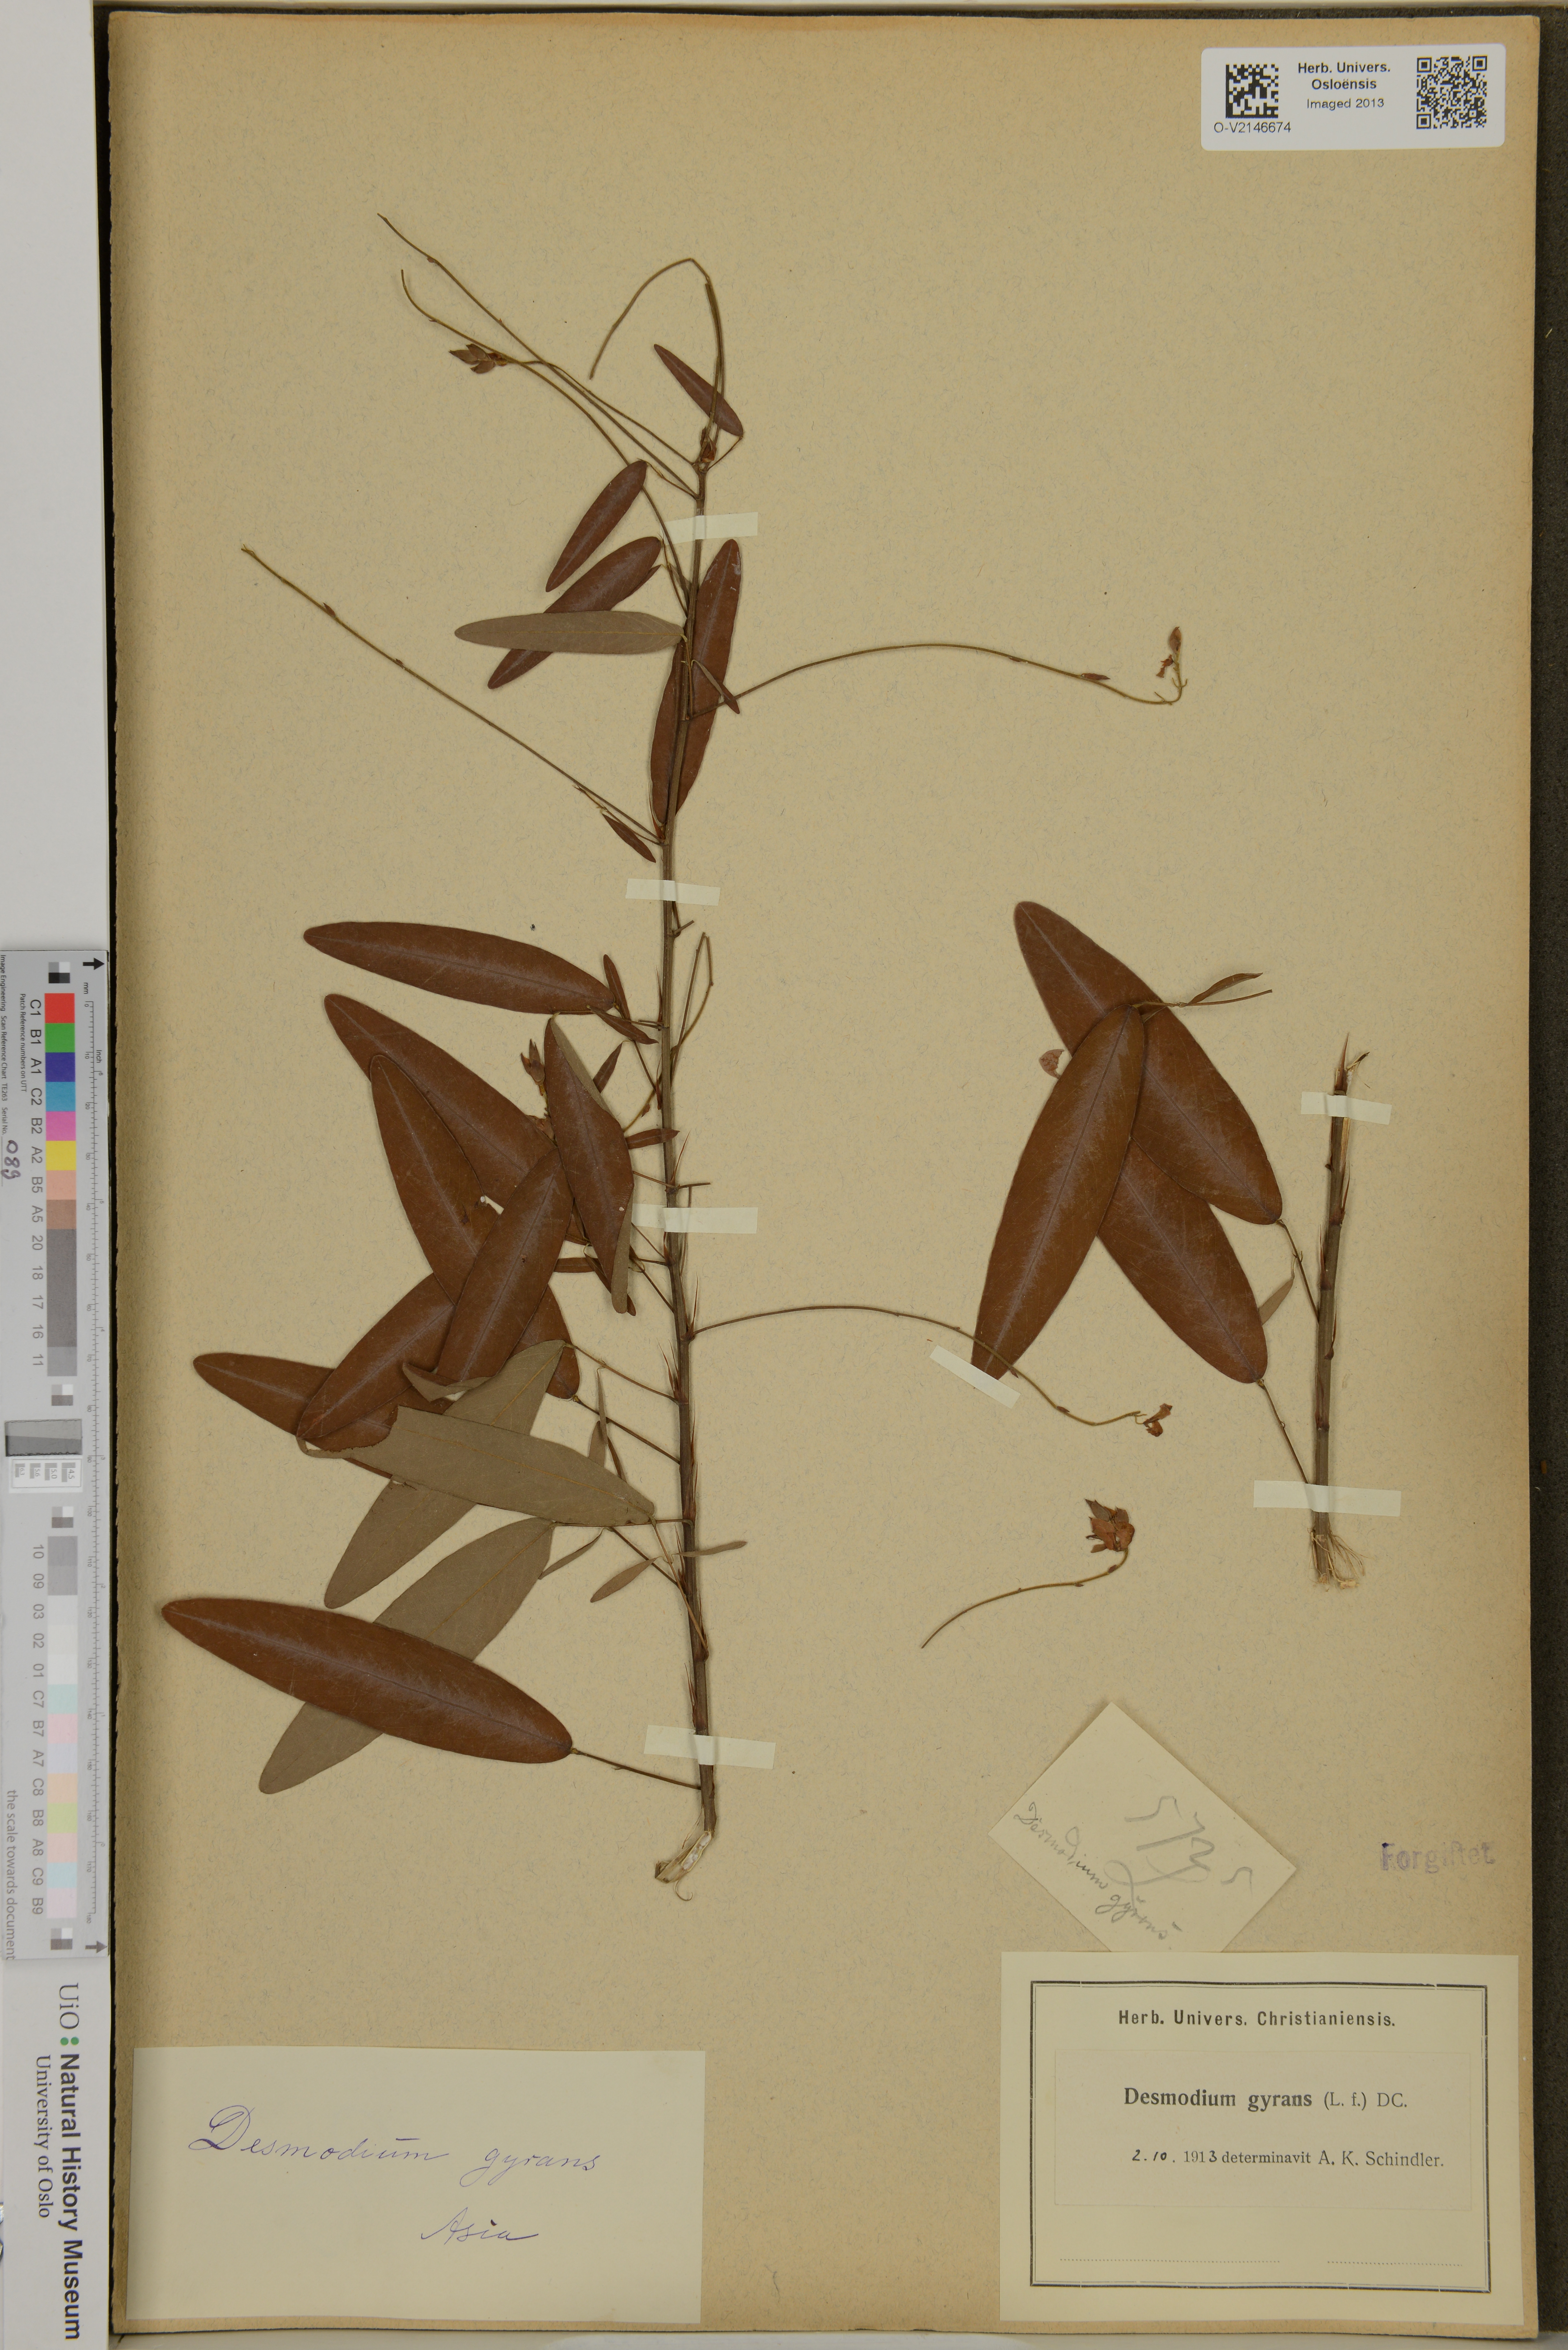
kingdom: Plantae
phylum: Tracheophyta
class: Magnoliopsida
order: Fabales
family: Fabaceae
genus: Codariocalyx
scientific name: Codariocalyx motorius
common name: Telegraph-plant
